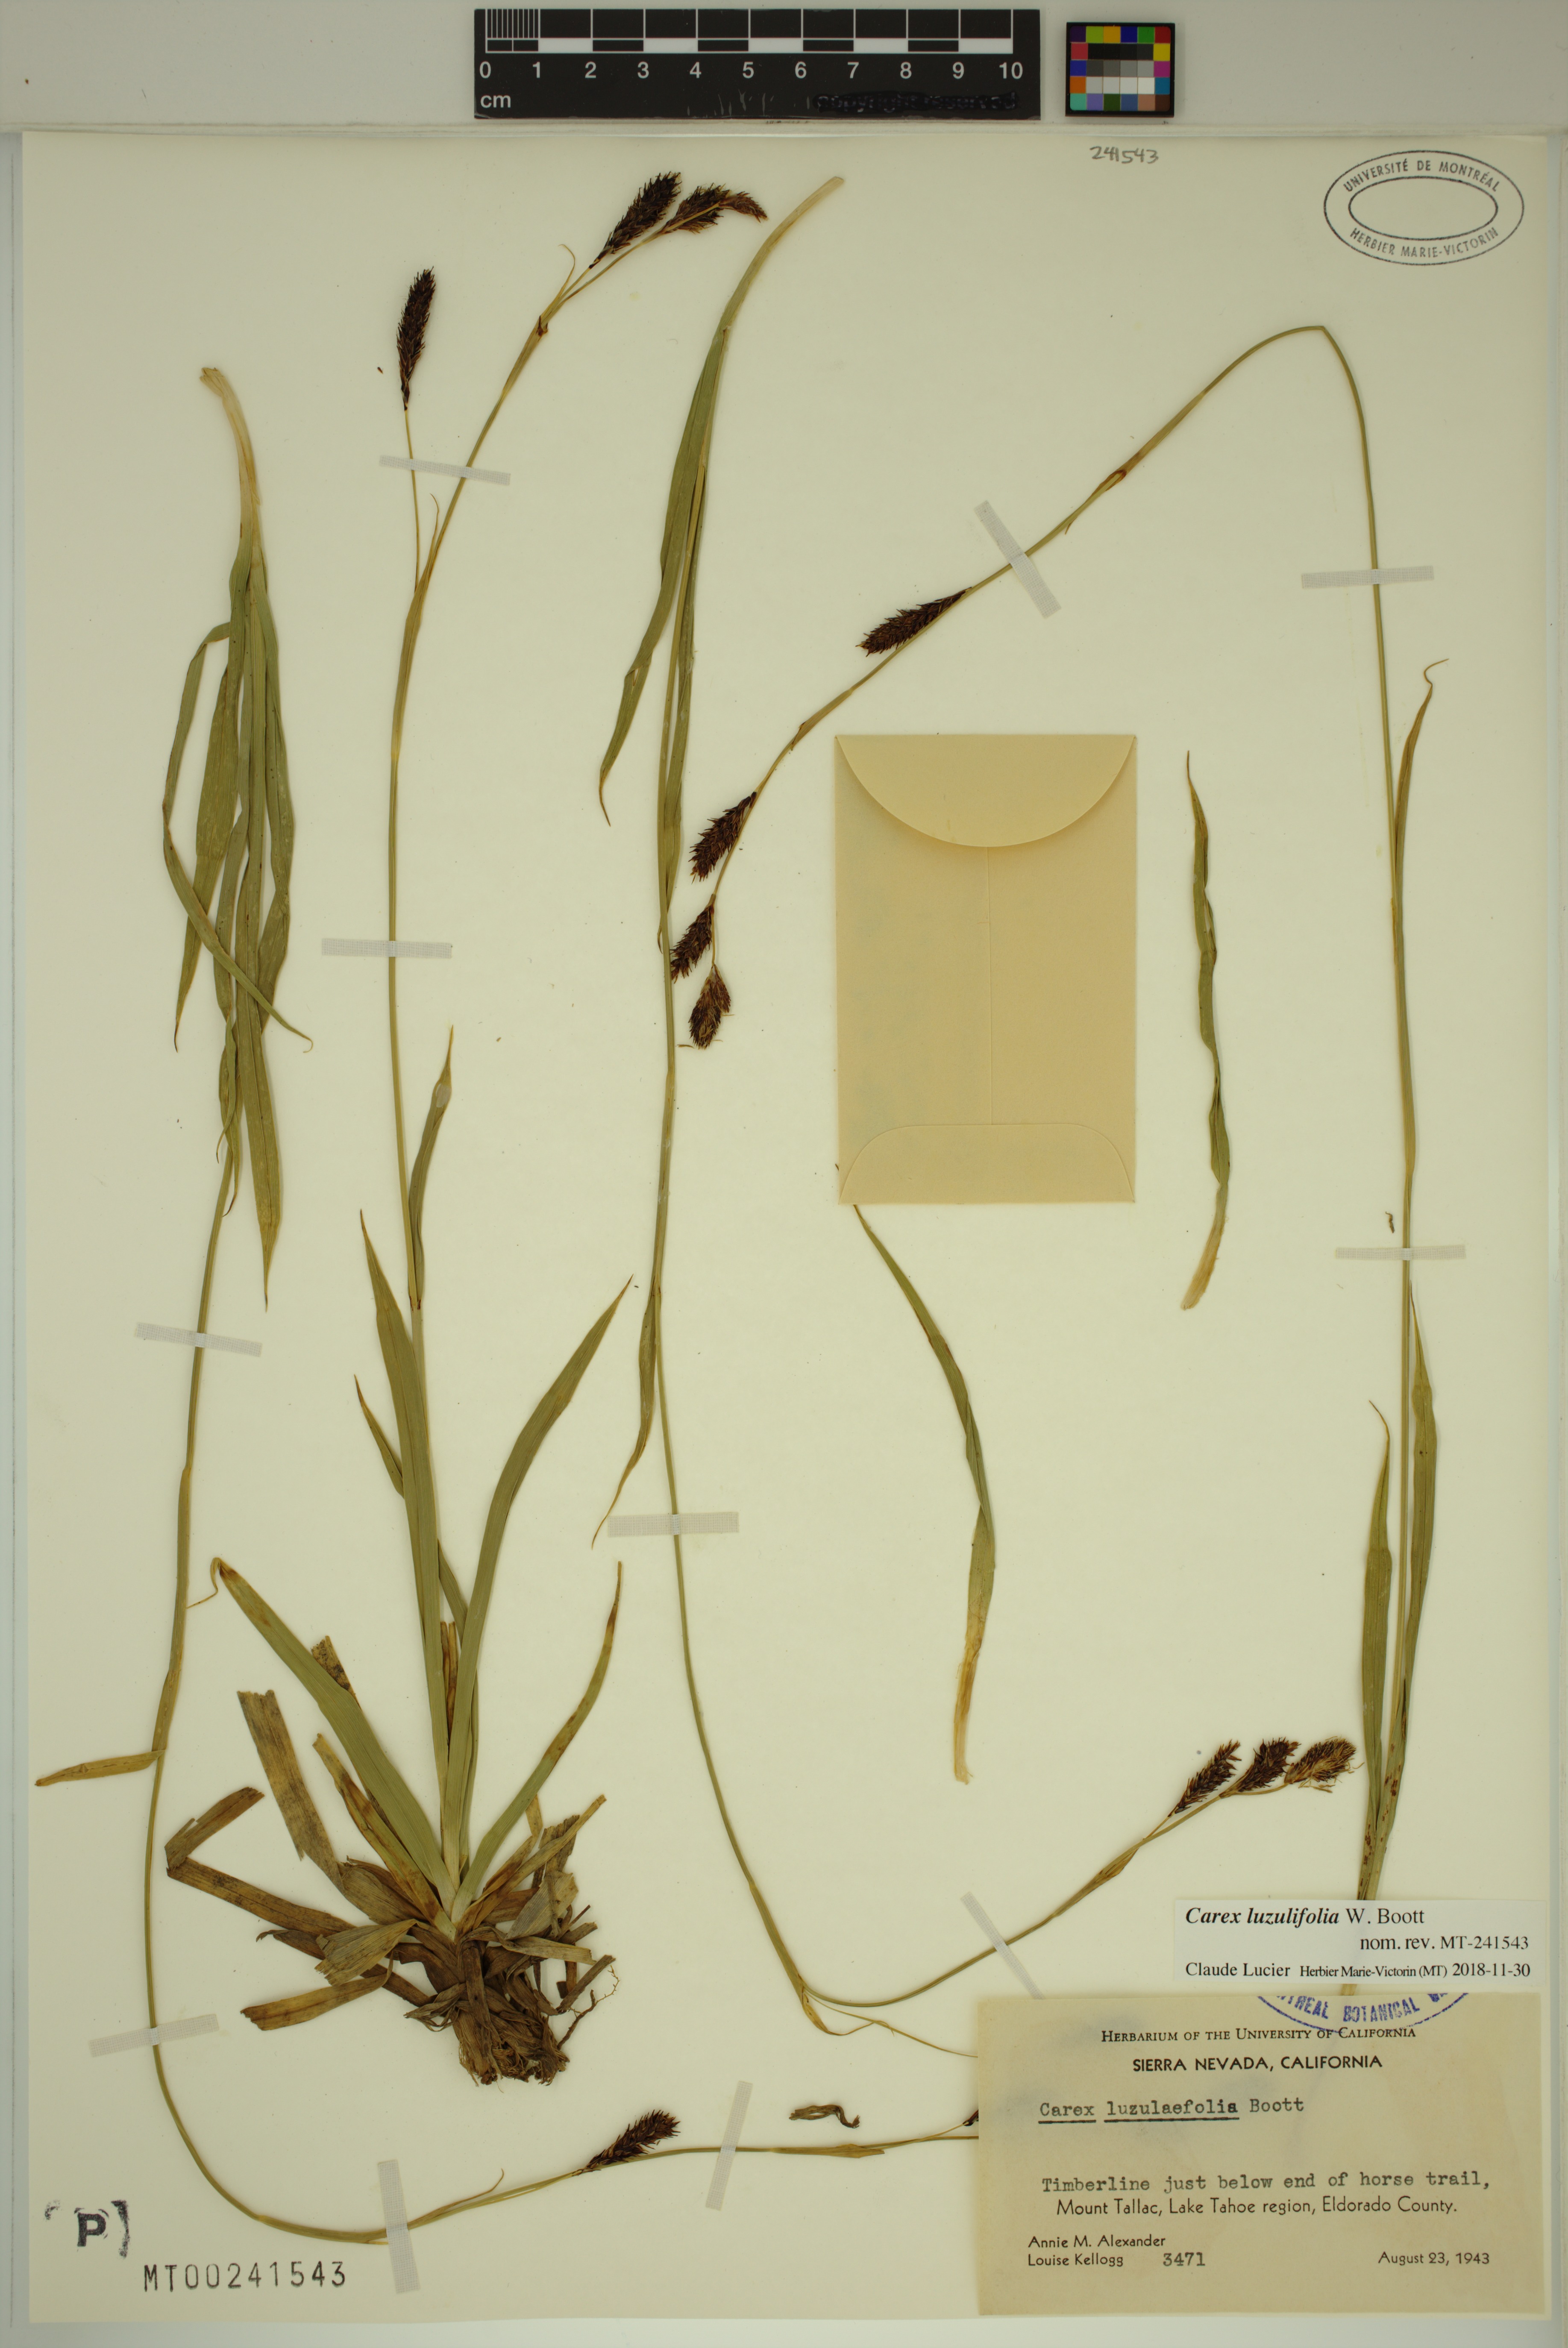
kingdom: Plantae
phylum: Tracheophyta
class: Liliopsida
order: Poales
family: Cyperaceae
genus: Carex
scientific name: Carex luzulifolia
